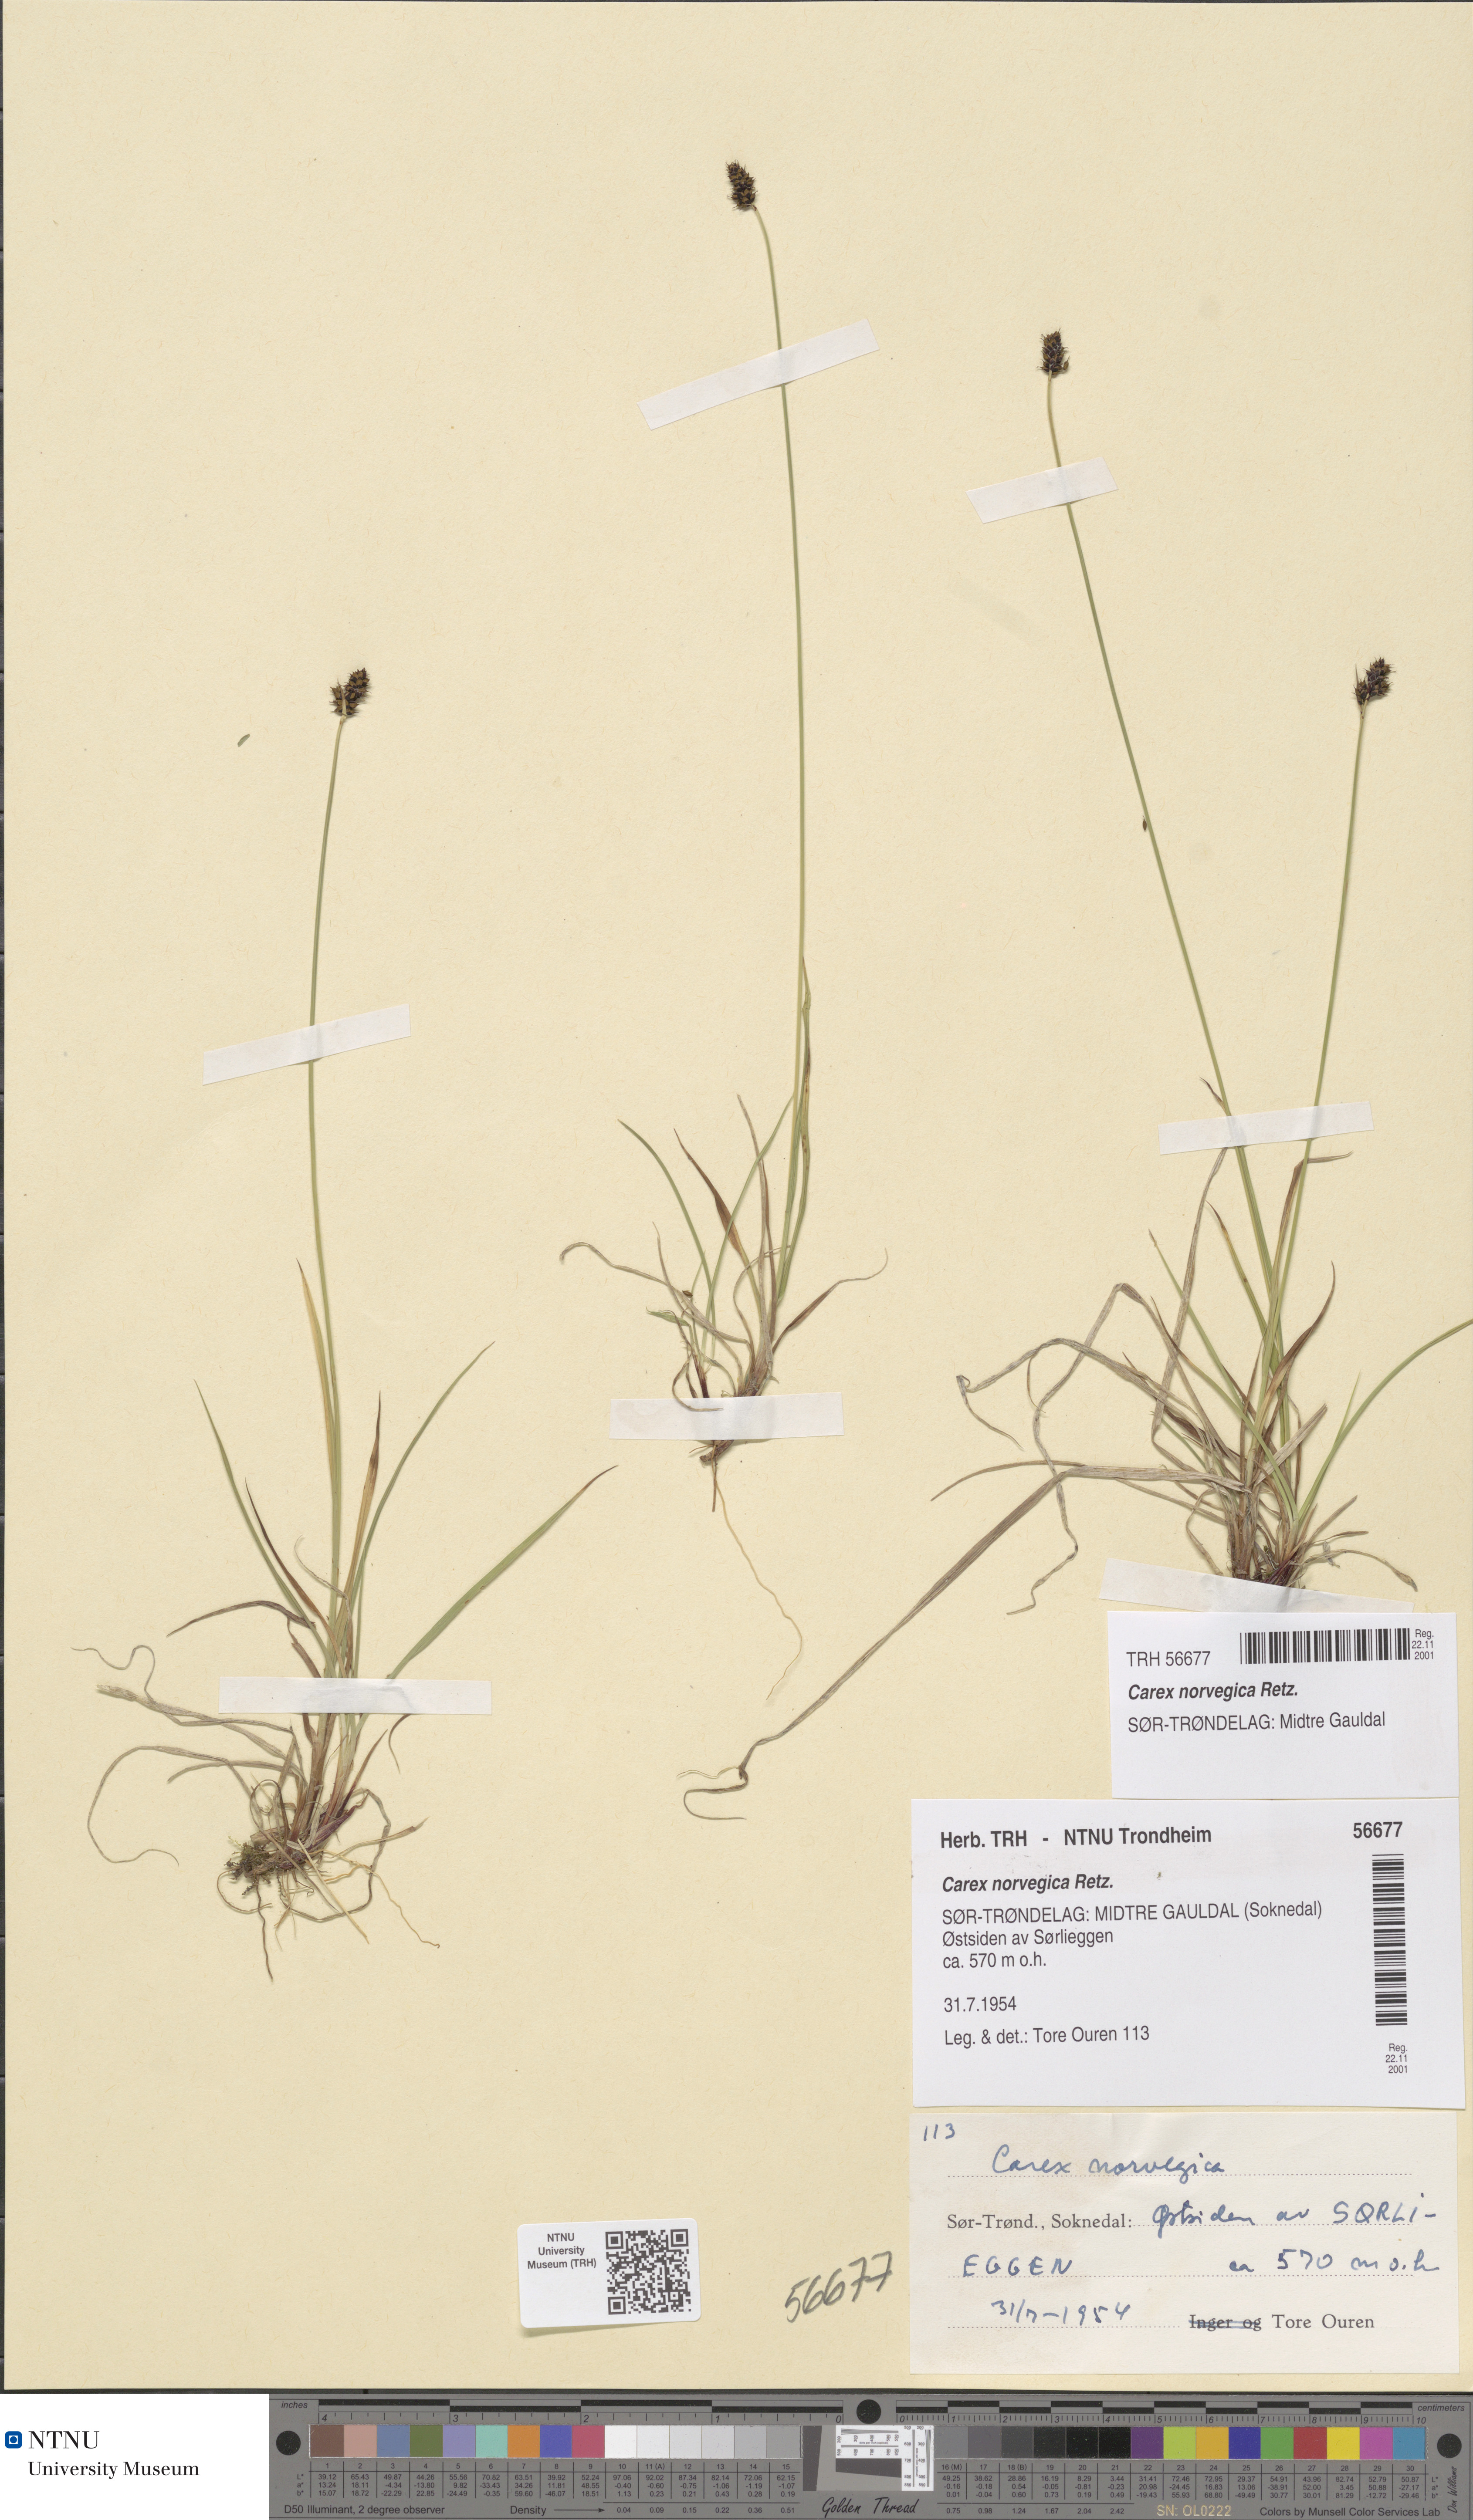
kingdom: Plantae
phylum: Tracheophyta
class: Liliopsida
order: Poales
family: Cyperaceae
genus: Carex
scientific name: Carex norvegica
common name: Close-headed alpine-sedge
